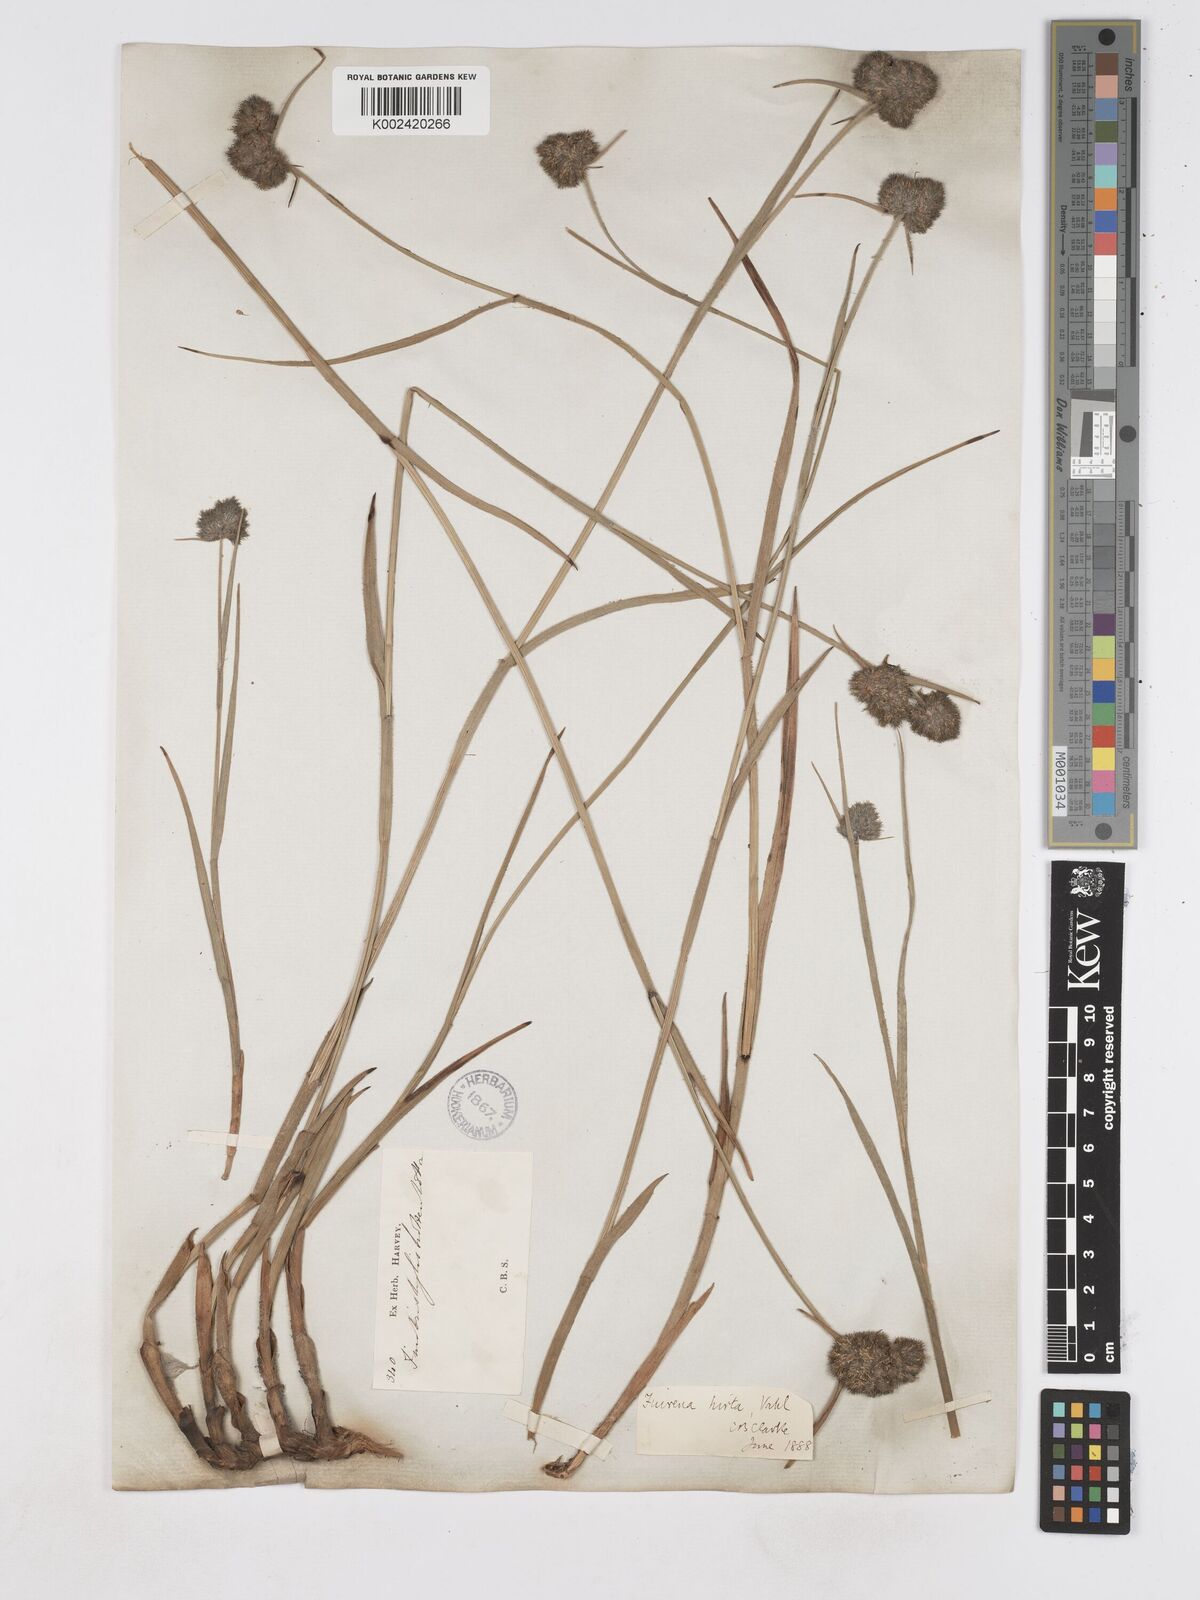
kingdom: Plantae
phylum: Tracheophyta
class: Liliopsida
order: Poales
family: Cyperaceae
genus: Fuirena
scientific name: Fuirena hirsuta
